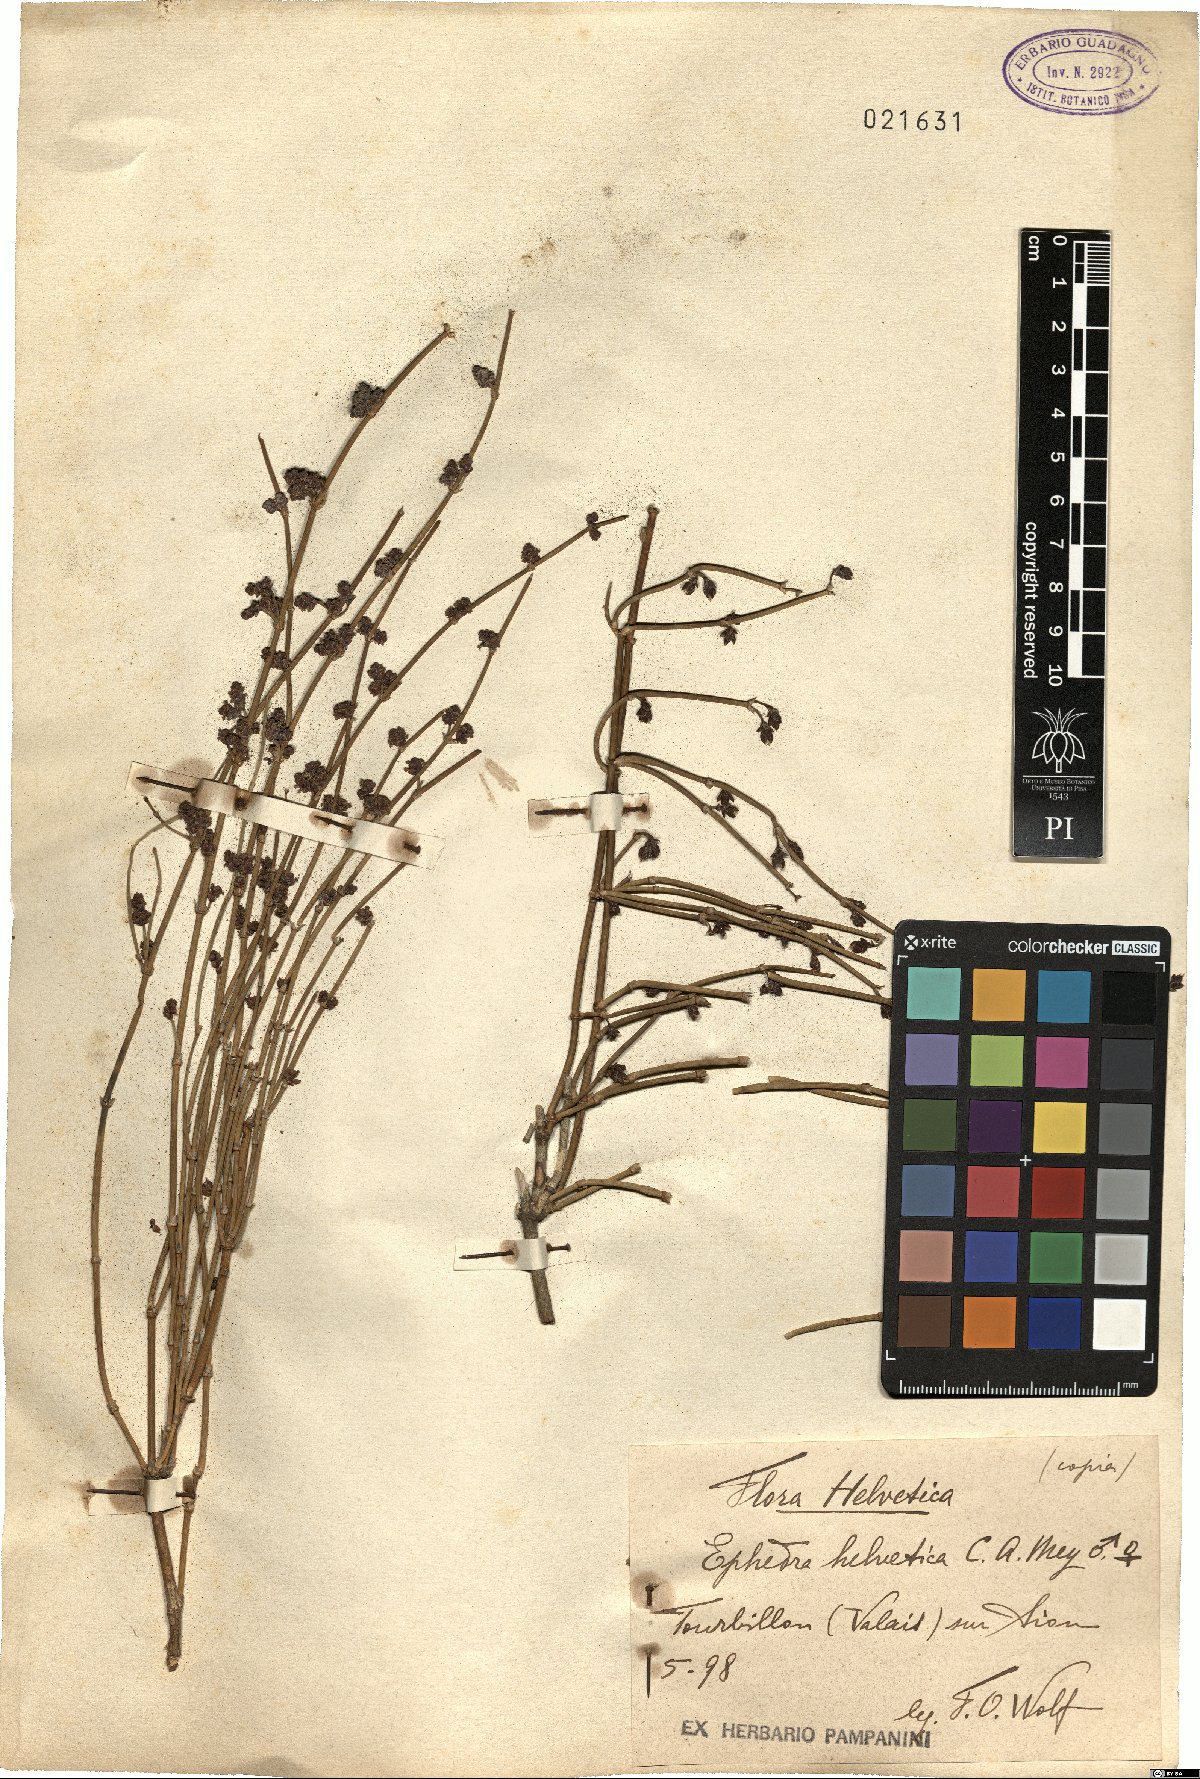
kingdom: Plantae
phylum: Tracheophyta
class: Gnetopsida
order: Ephedrales
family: Ephedraceae
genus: Ephedra
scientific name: Ephedra distachya
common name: Sea grape
